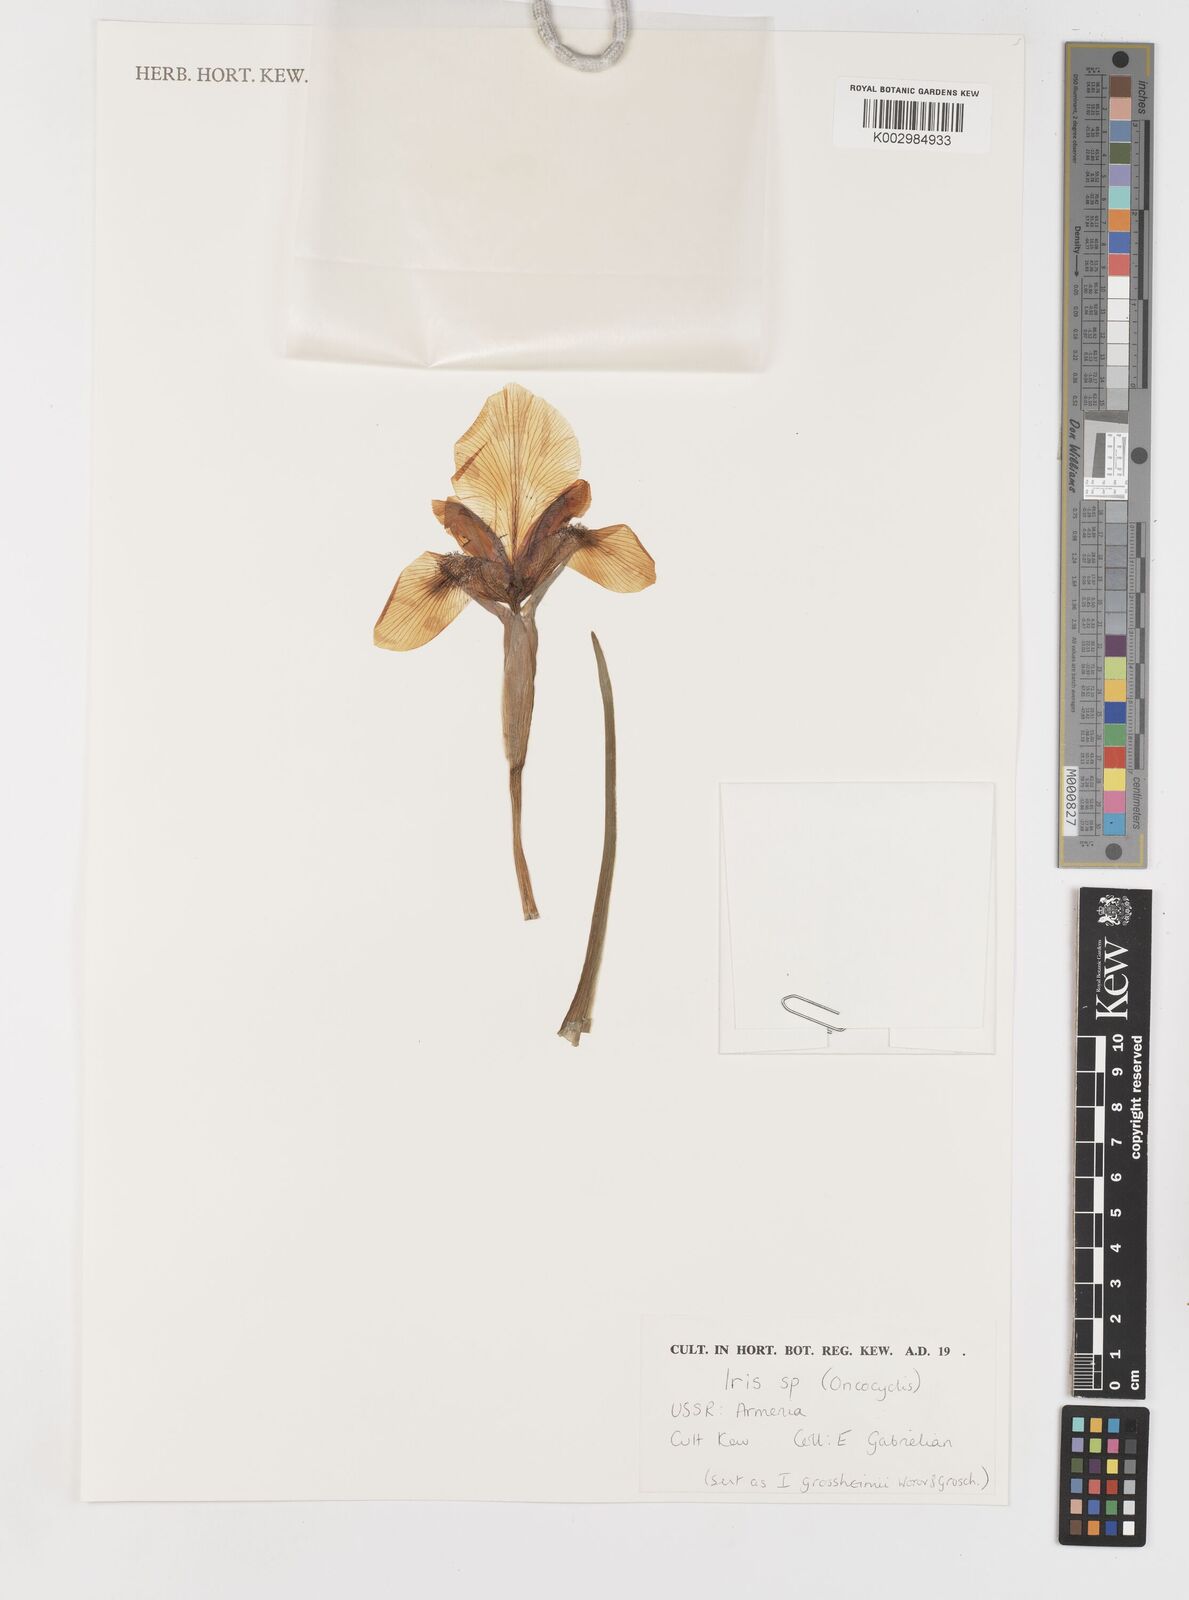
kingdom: Plantae
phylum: Tracheophyta
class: Liliopsida
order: Asparagales
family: Iridaceae
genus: Iris
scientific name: Iris
